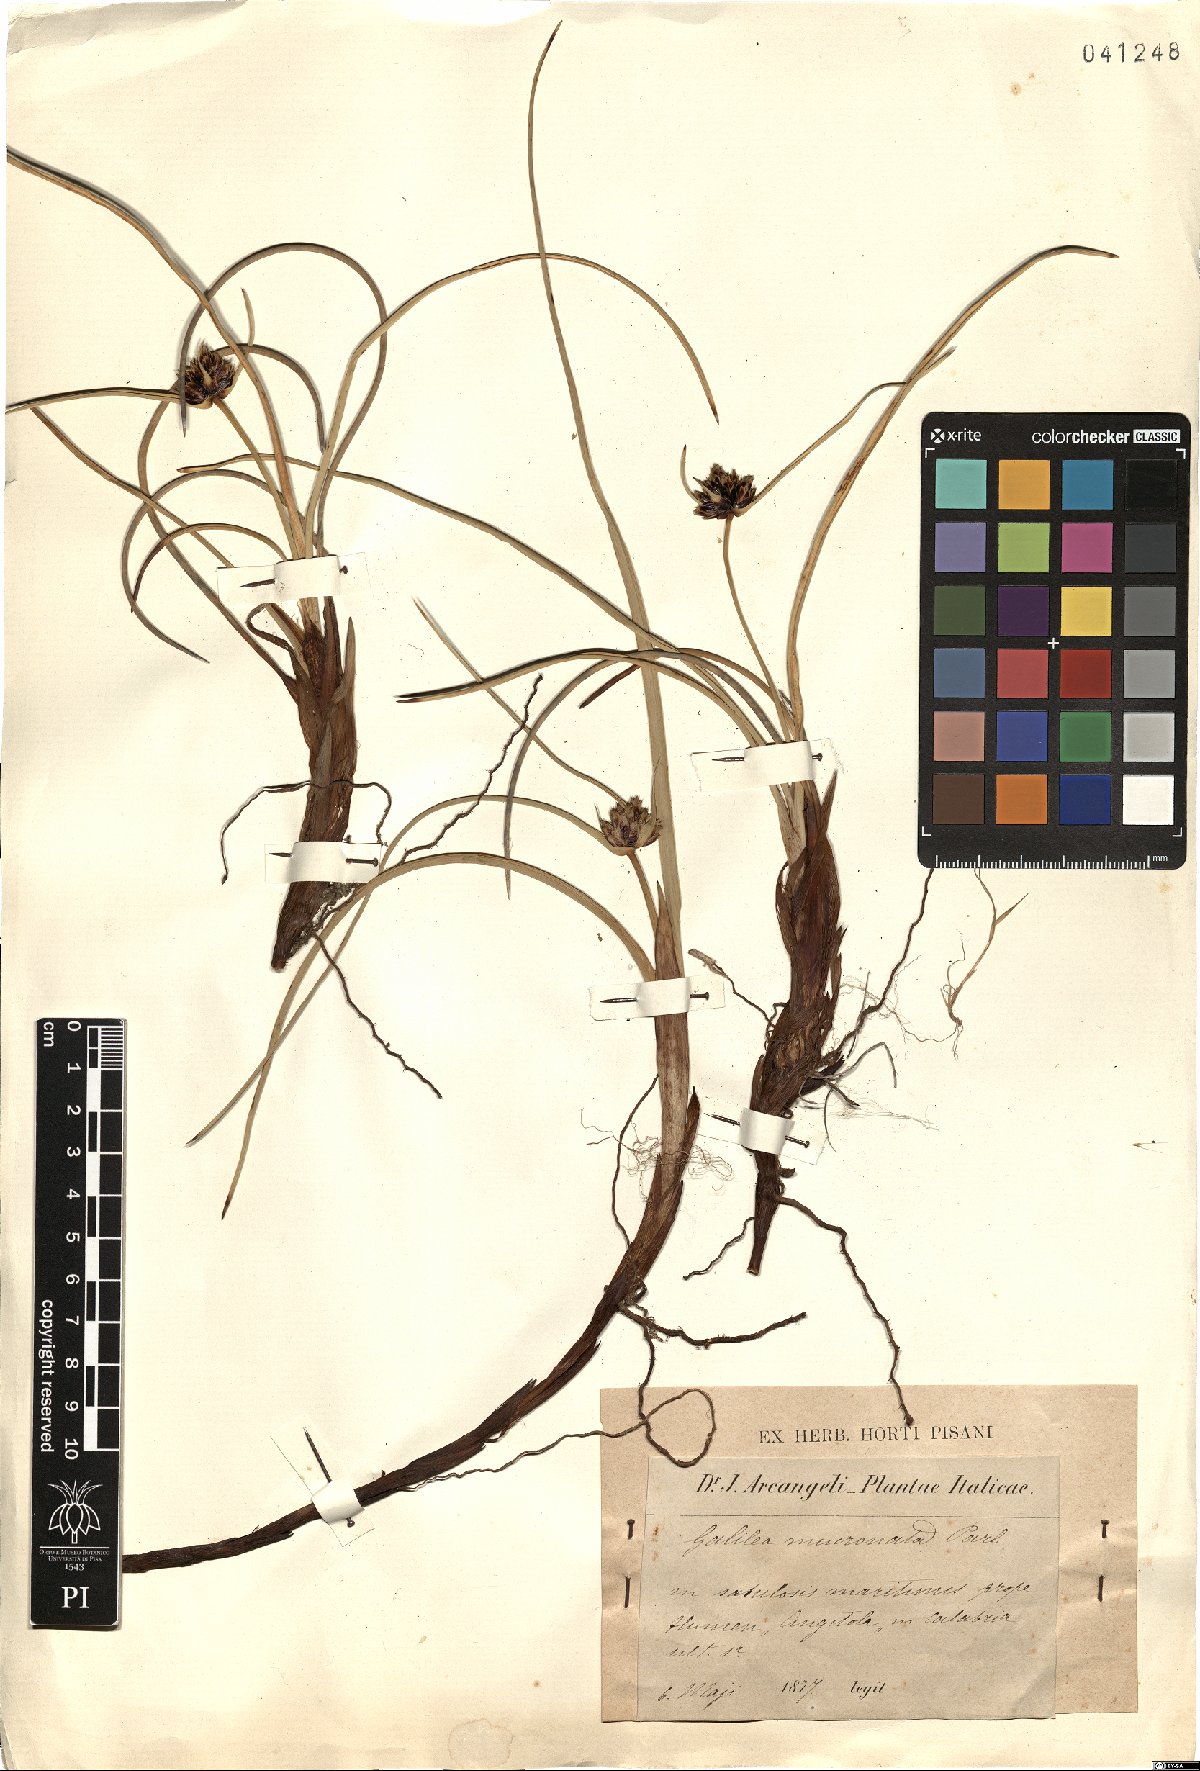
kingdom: Plantae
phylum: Tracheophyta
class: Liliopsida
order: Poales
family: Cyperaceae
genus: Cyperus
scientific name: Cyperus capitatus
